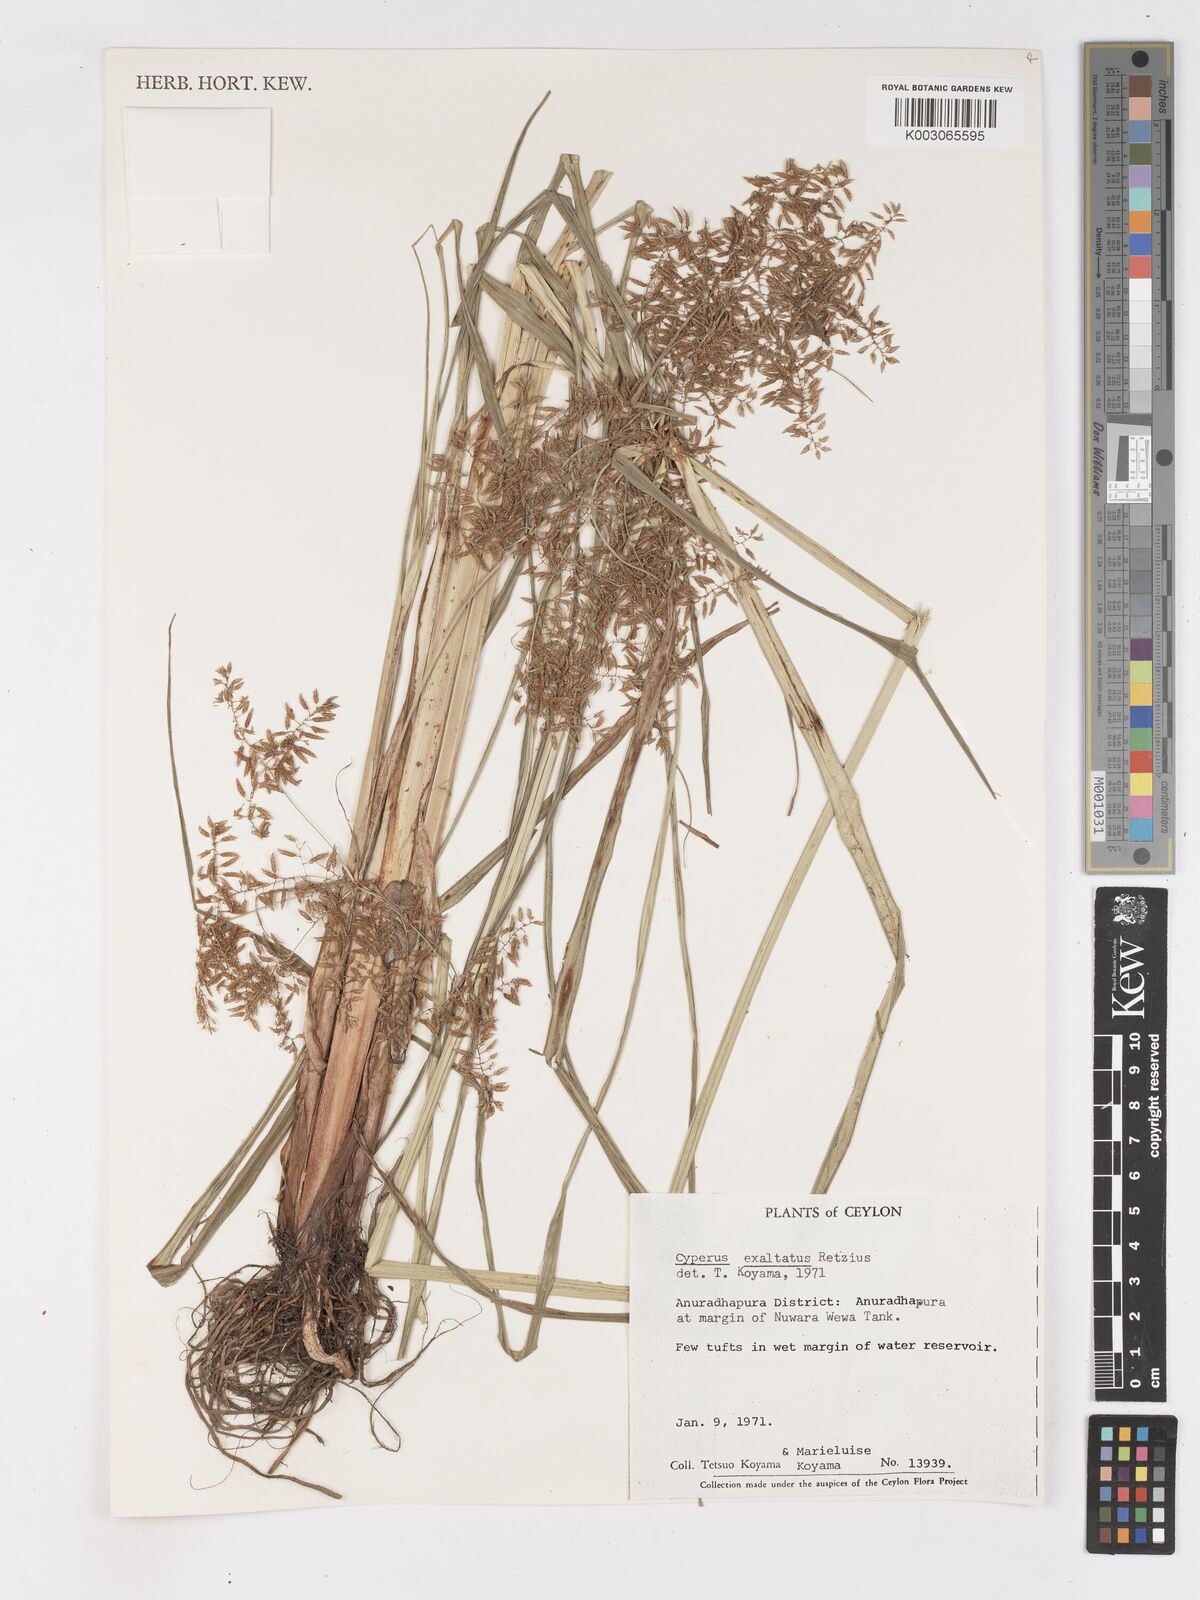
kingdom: Plantae
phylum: Tracheophyta
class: Liliopsida
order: Poales
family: Cyperaceae
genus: Cyperus
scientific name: Cyperus exaltatus
